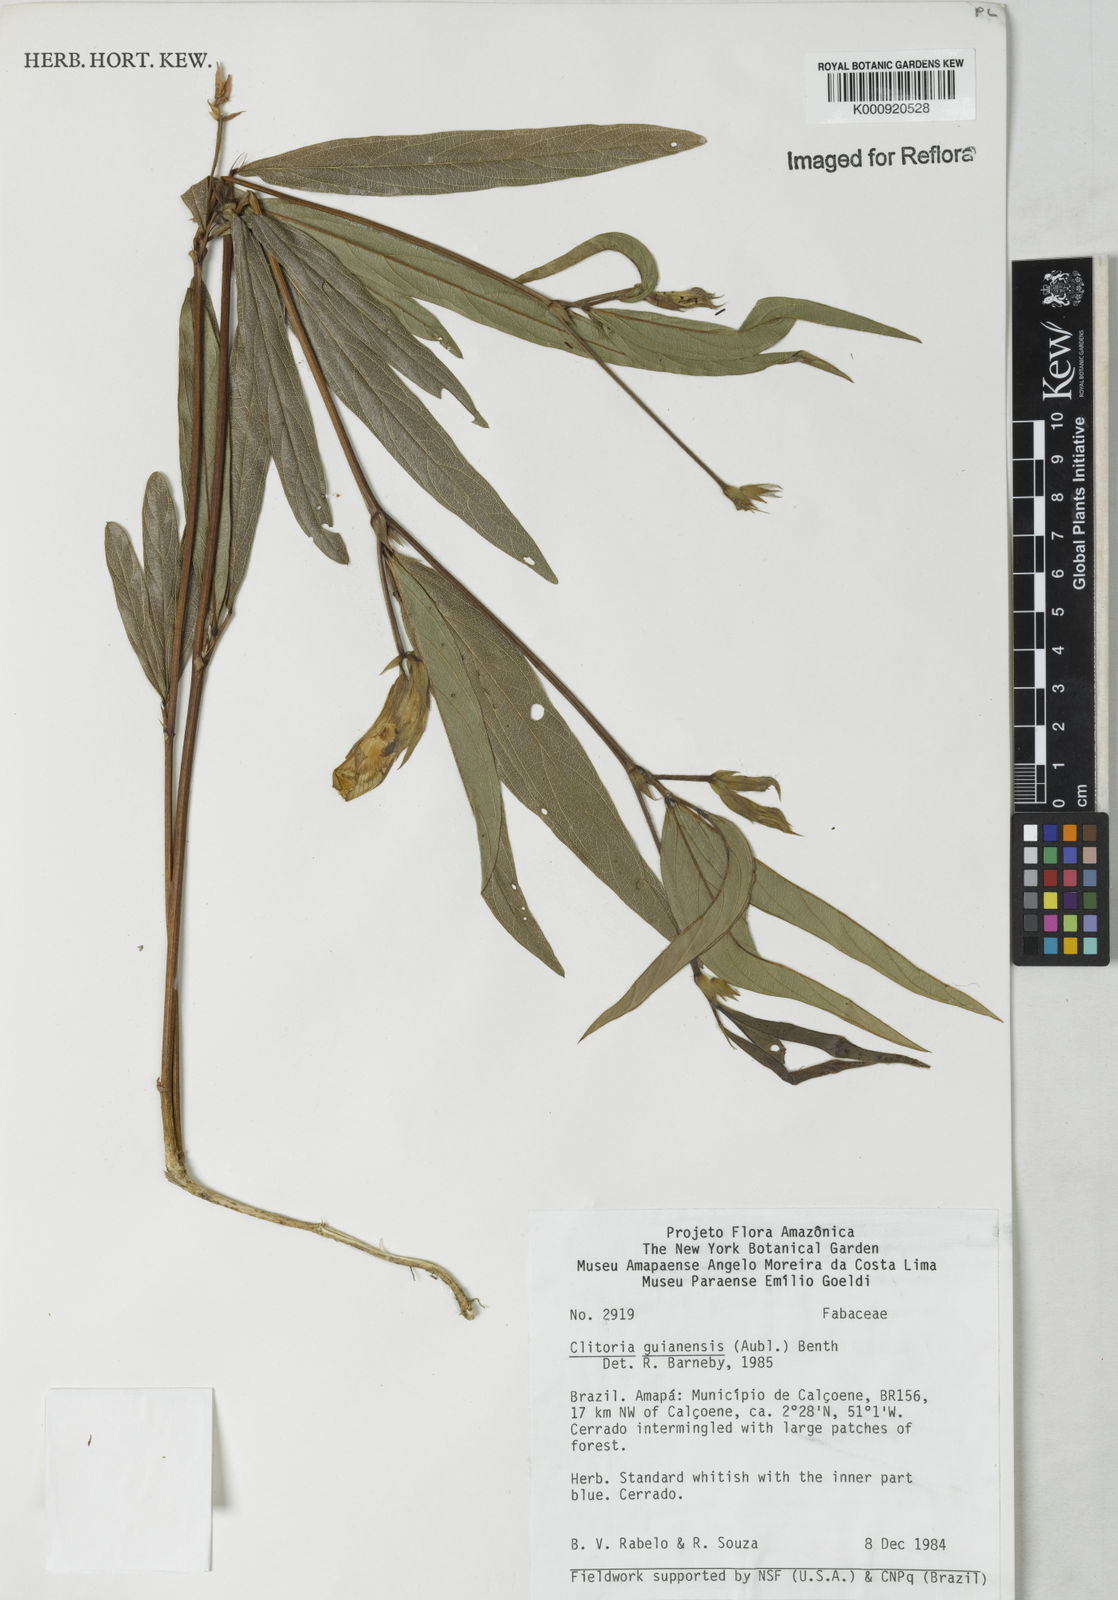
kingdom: Plantae
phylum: Tracheophyta
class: Magnoliopsida
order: Fabales
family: Fabaceae
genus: Clitoria
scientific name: Clitoria guianensis
